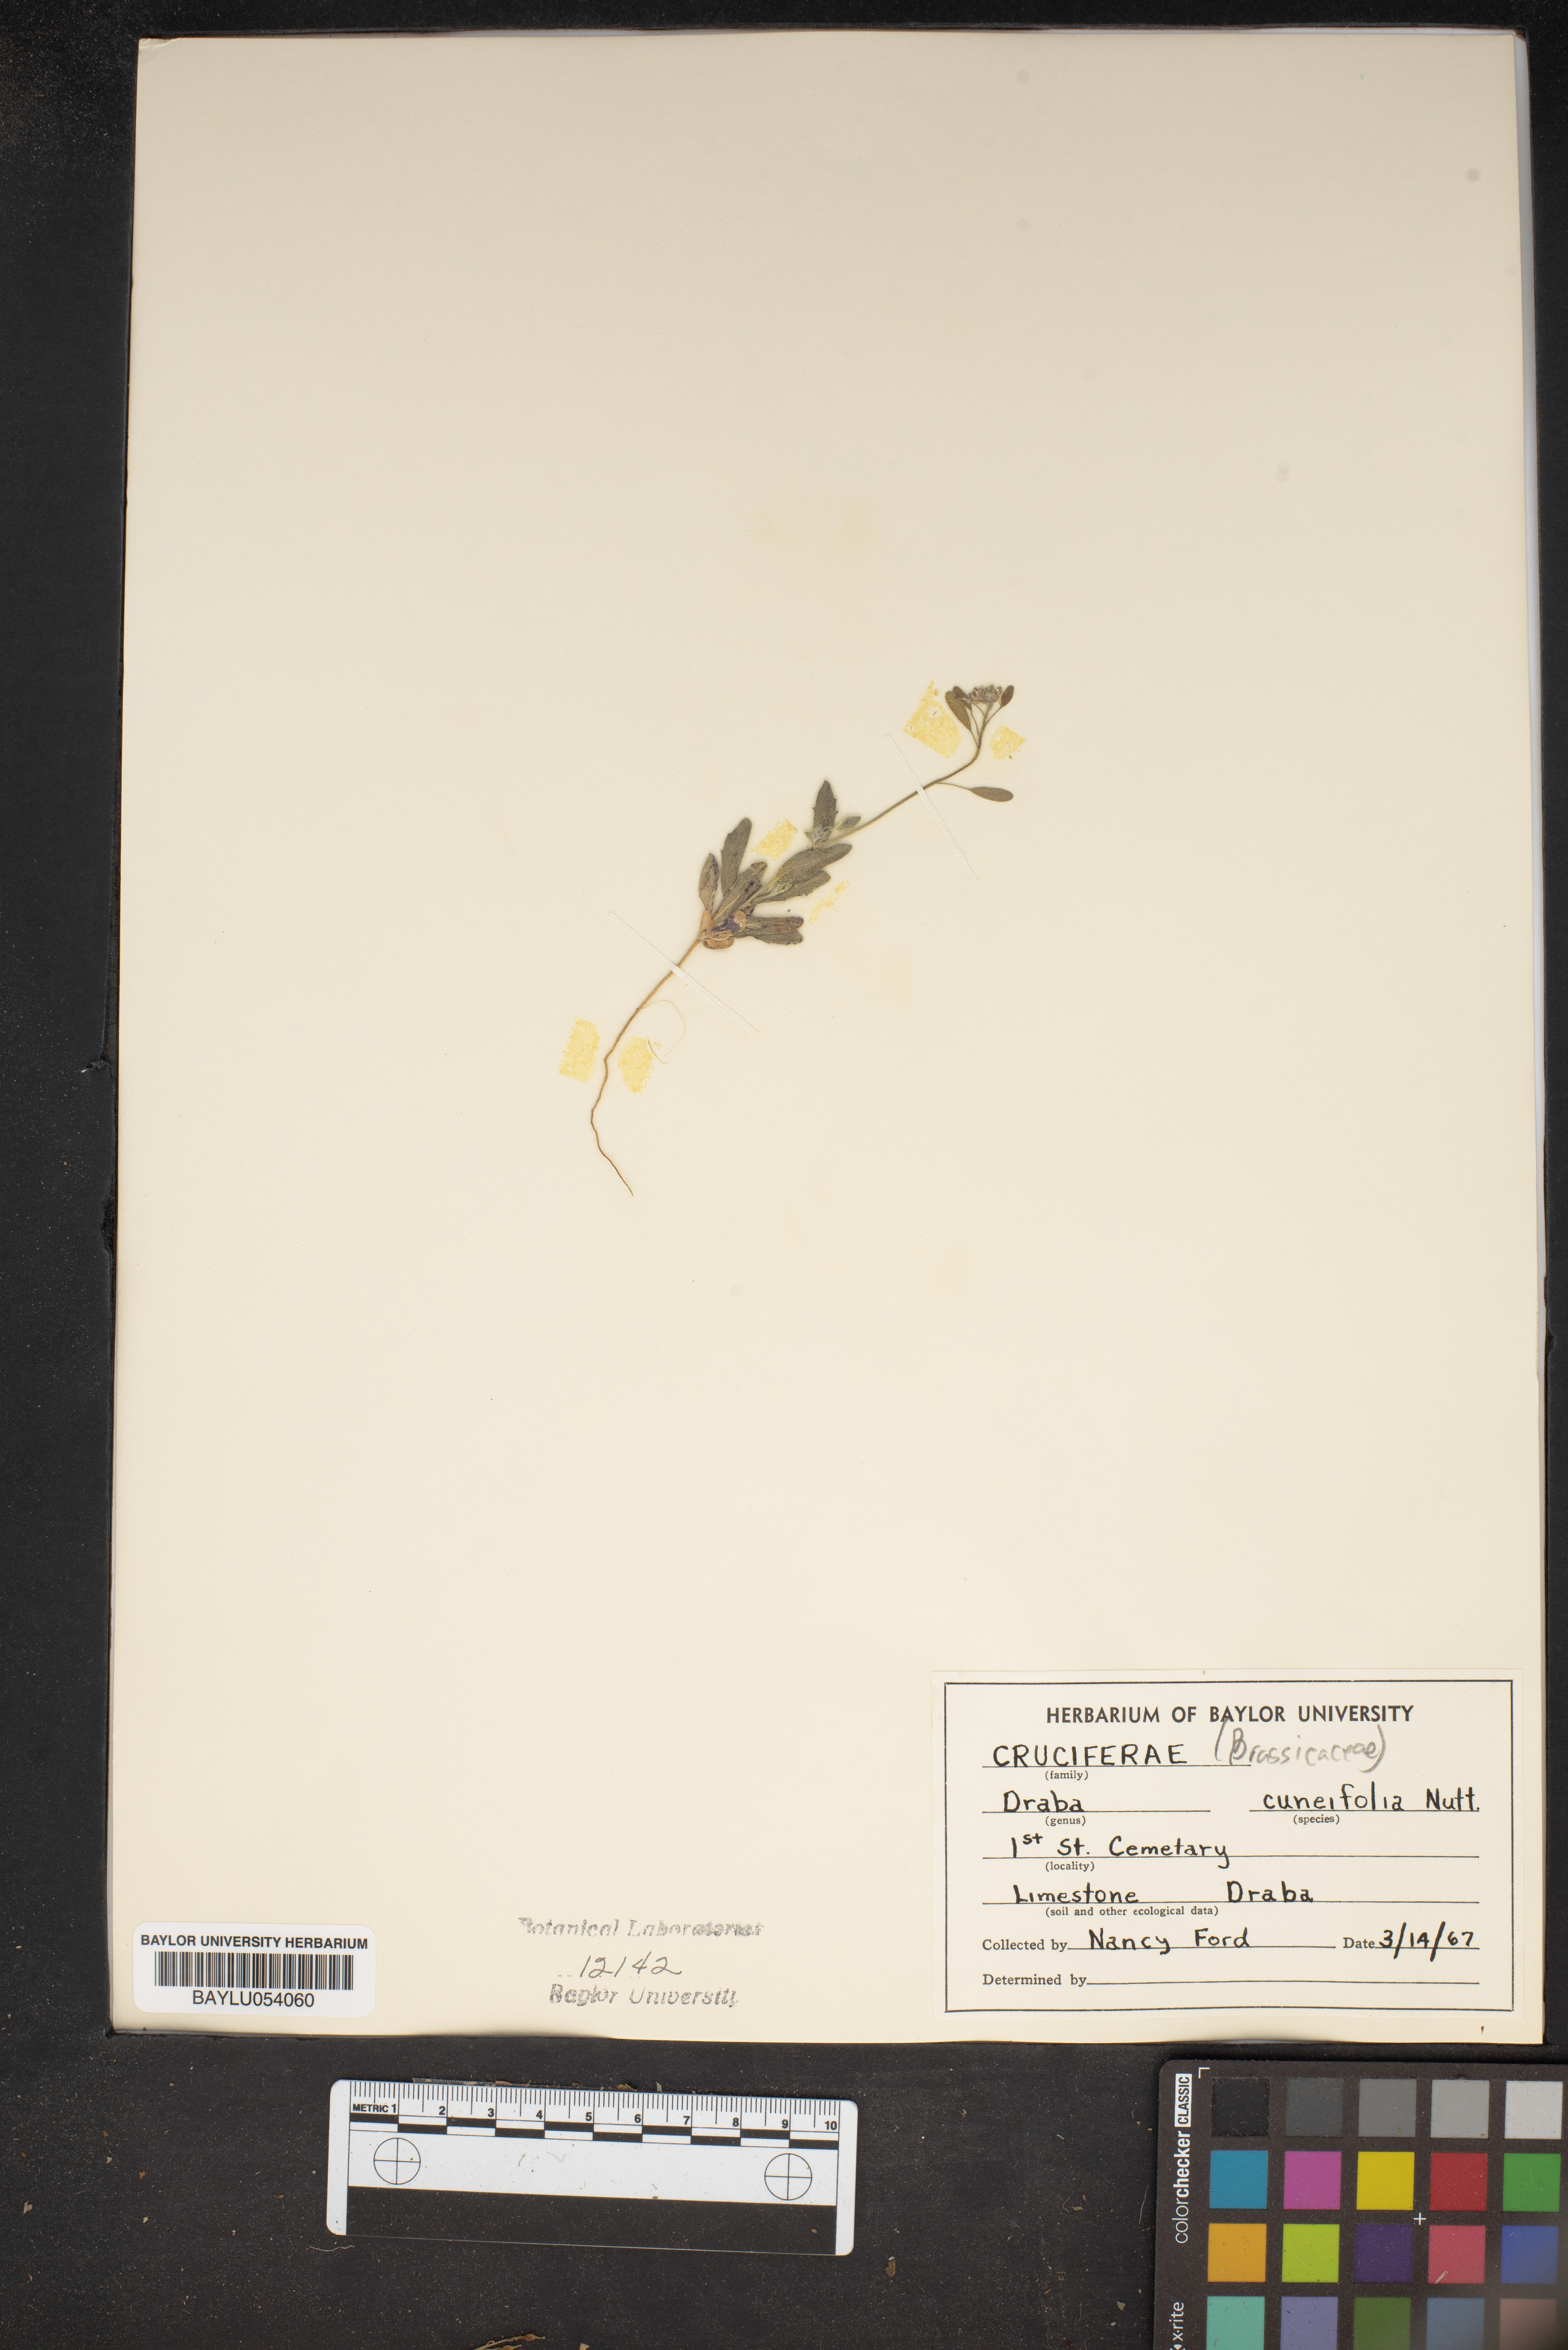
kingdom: Plantae
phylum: Tracheophyta
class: Magnoliopsida
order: Brassicales
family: Brassicaceae
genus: Tomostima
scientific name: Tomostima cuneifolia
